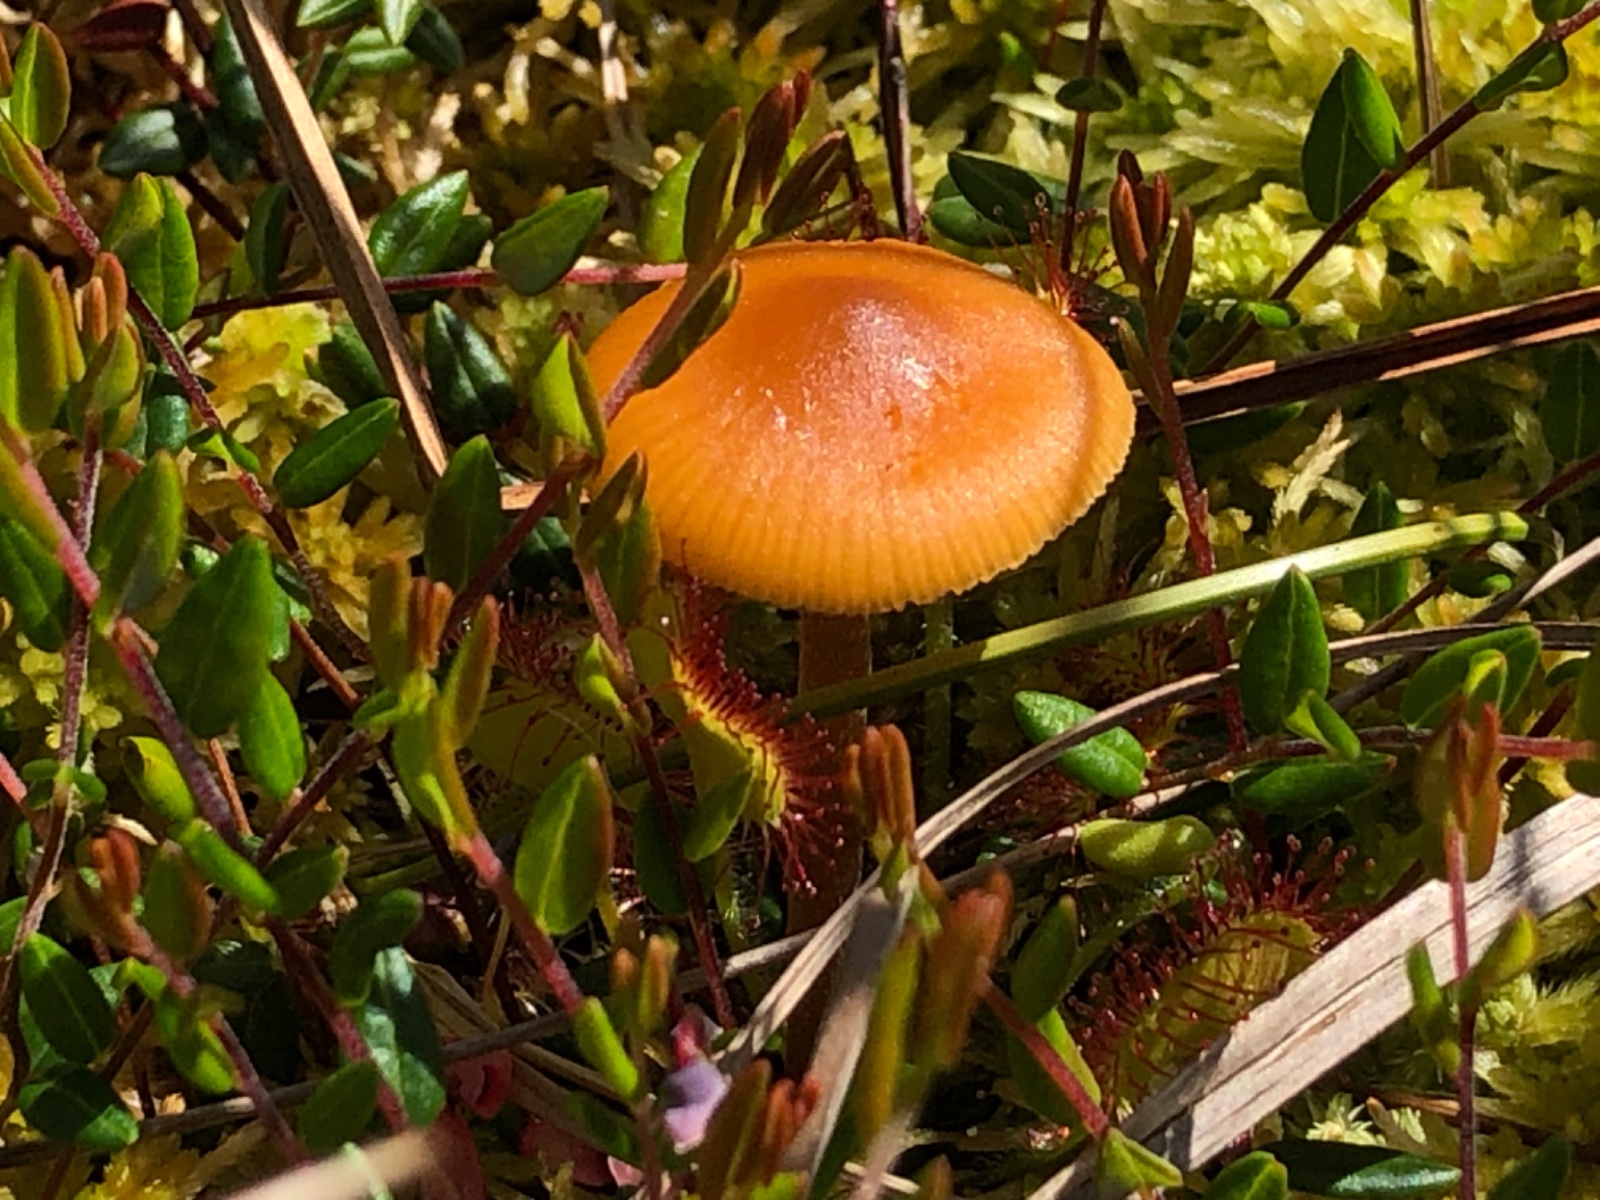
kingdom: Fungi
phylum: Basidiomycota
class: Agaricomycetes
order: Agaricales
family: Hymenogastraceae
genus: Galerina
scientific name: Galerina hybrida
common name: hængesæk-hjelmhat
